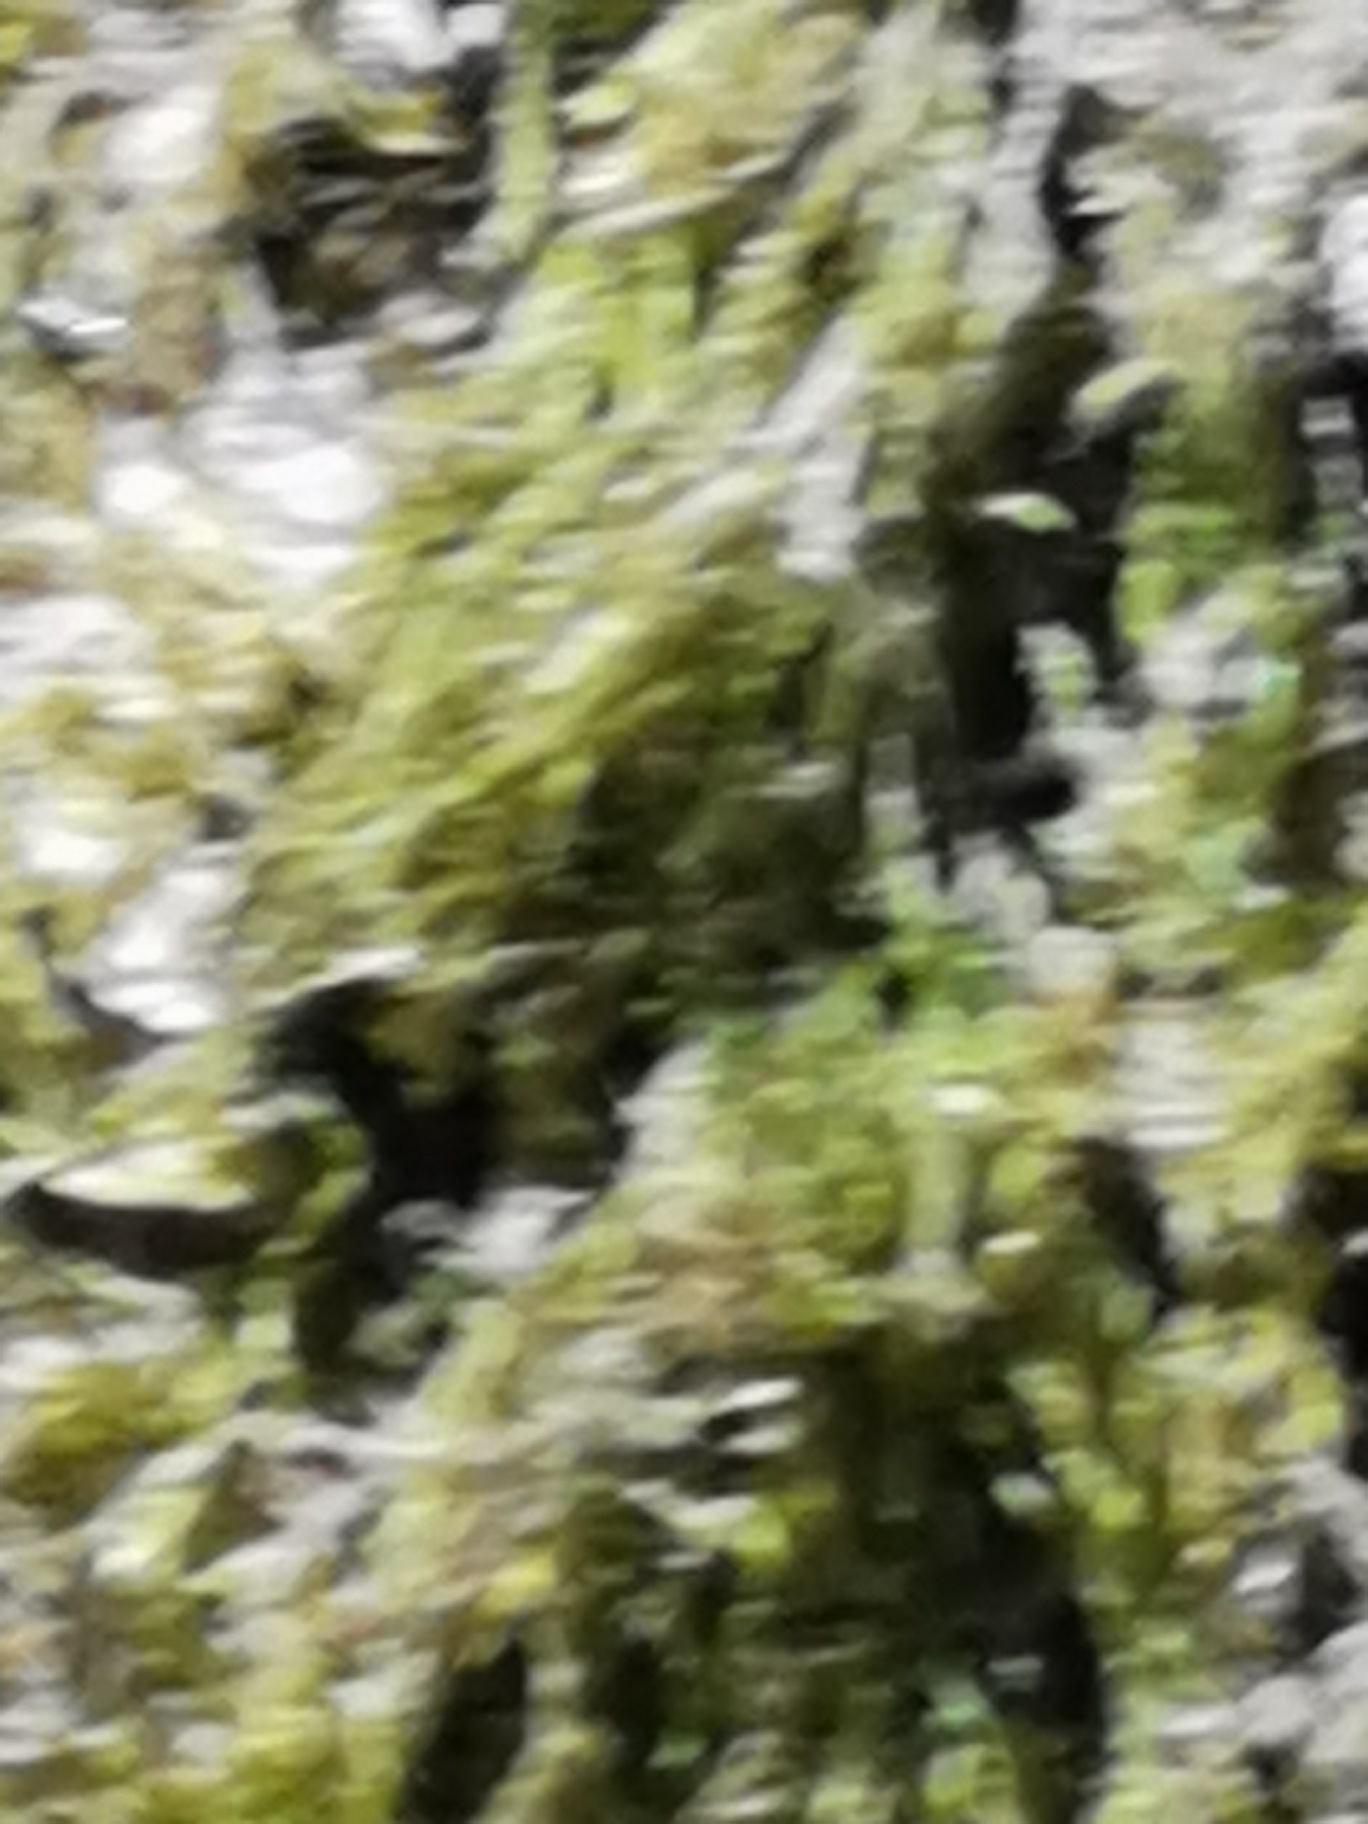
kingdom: Plantae
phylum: Bryophyta
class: Bryopsida
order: Hypnales
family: Hypnaceae
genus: Hypnum
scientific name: Hypnum
